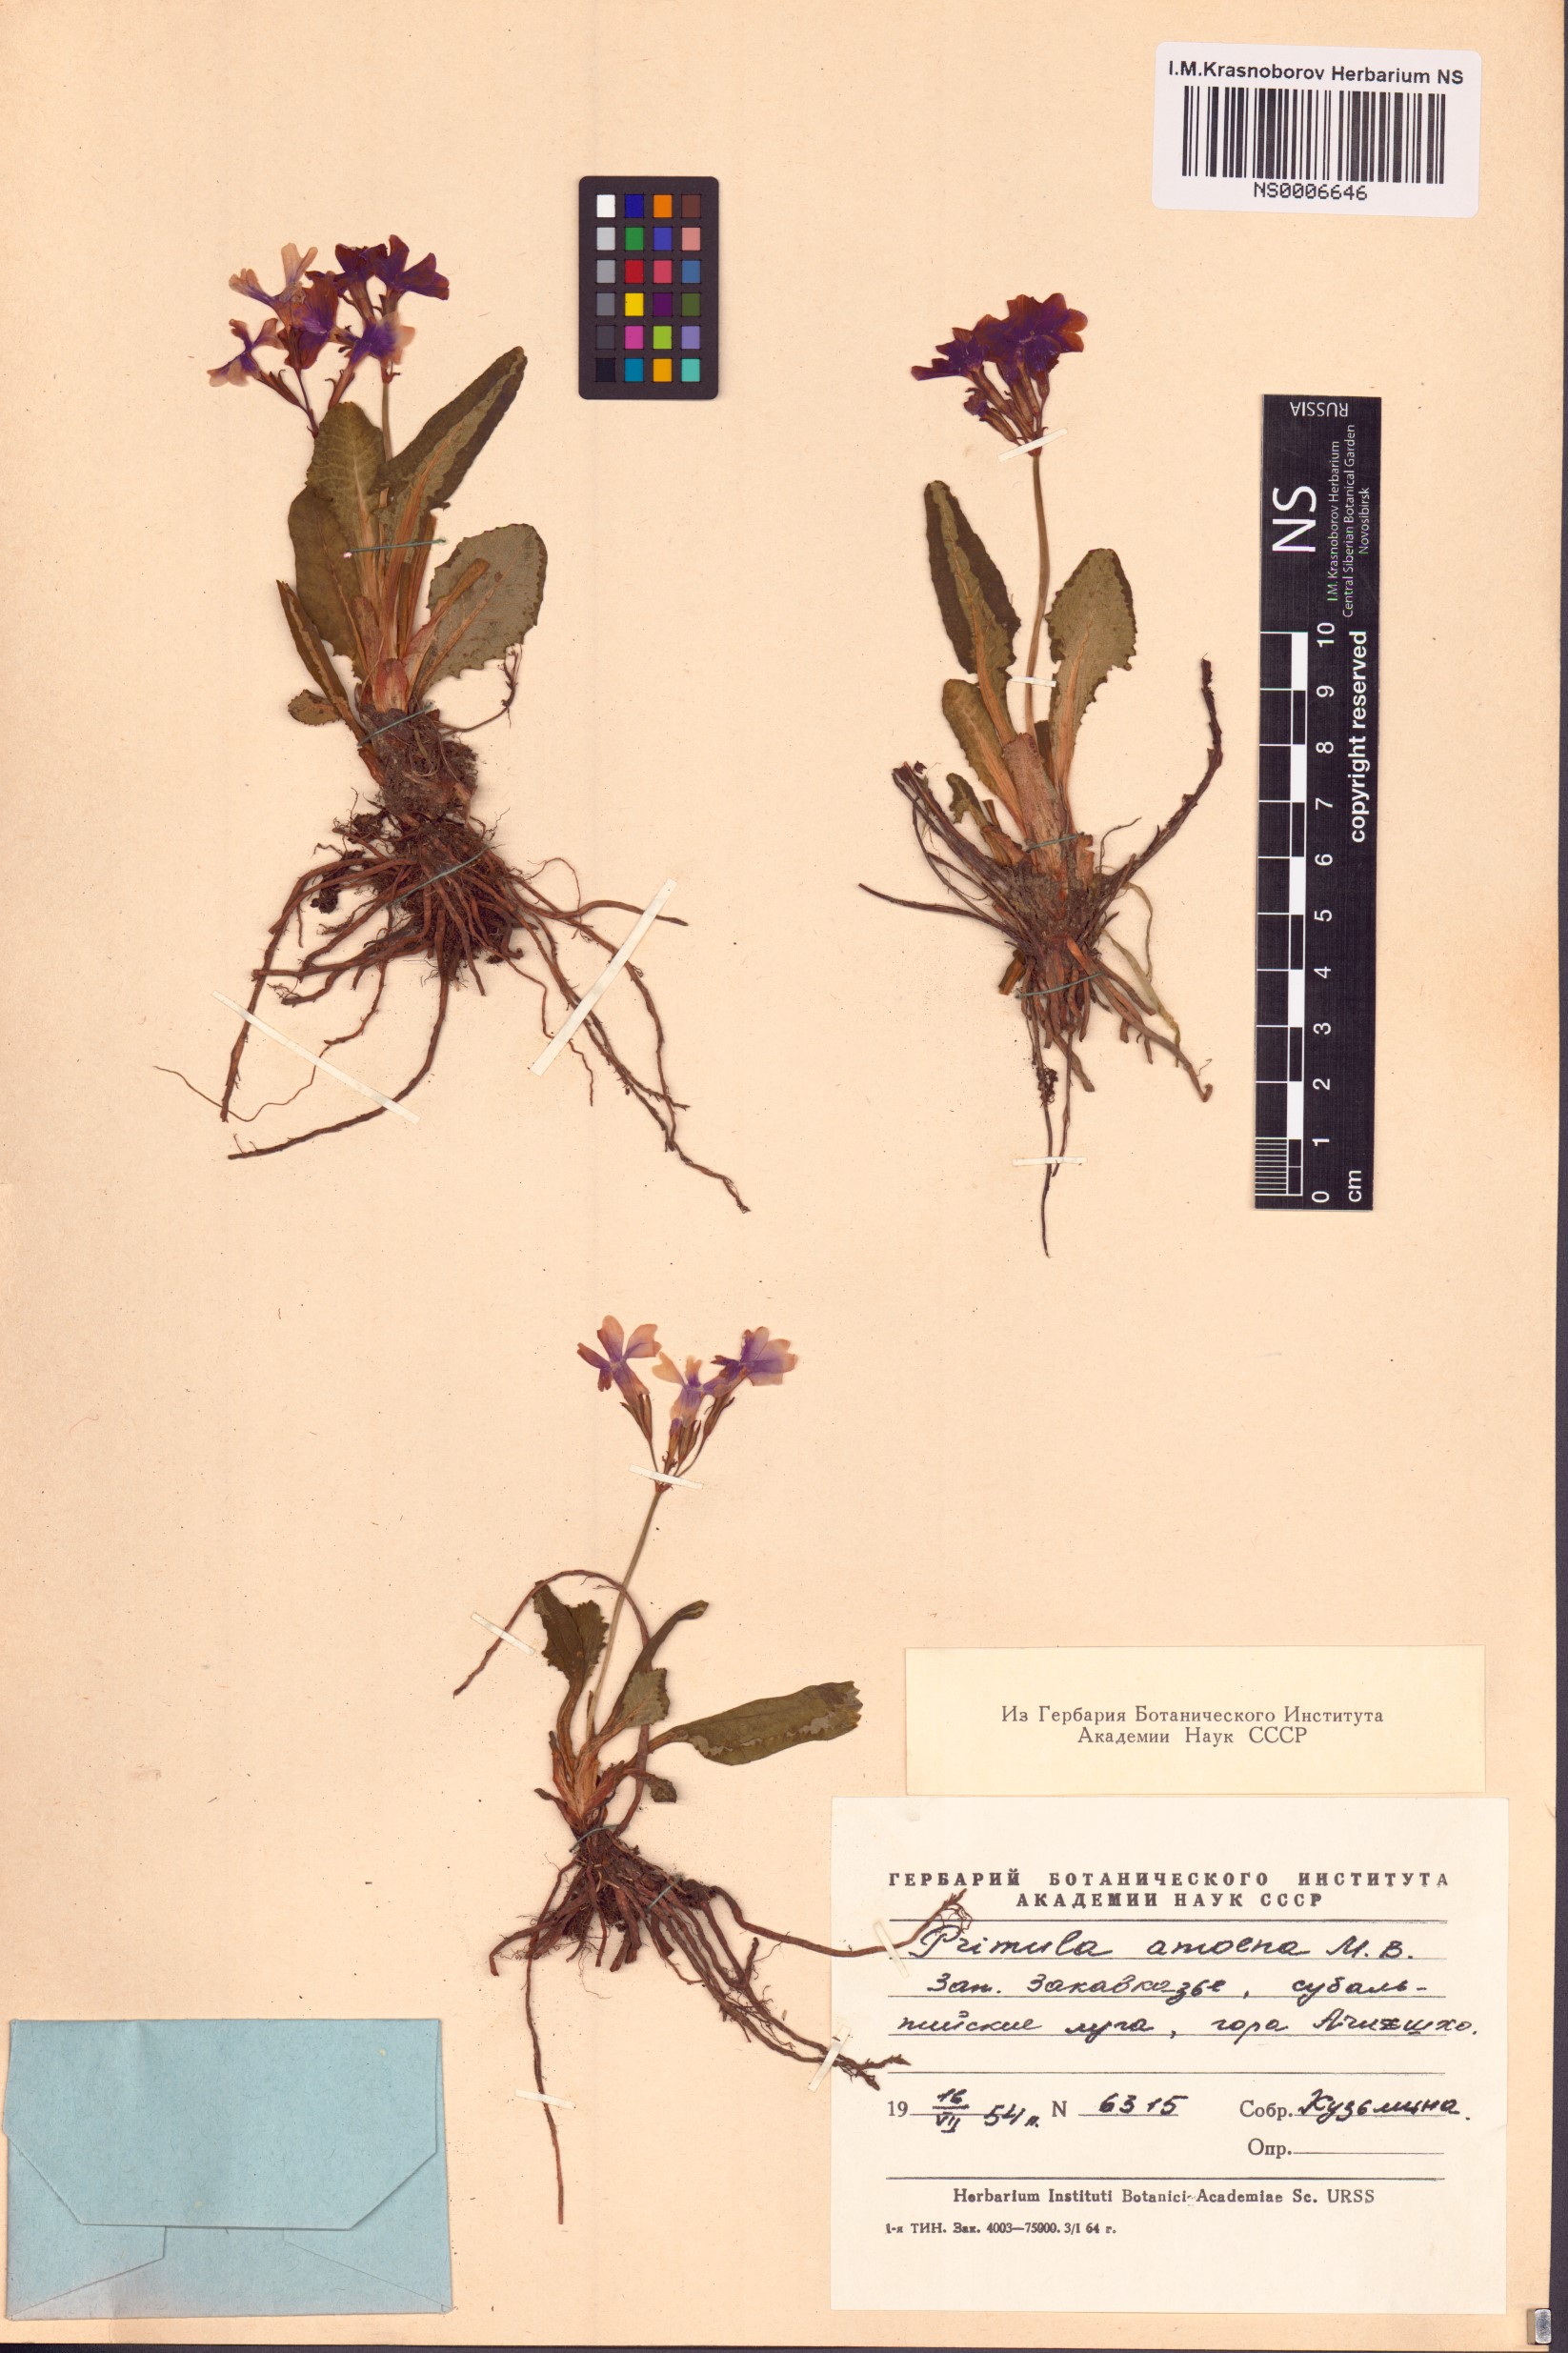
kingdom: Plantae
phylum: Tracheophyta
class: Magnoliopsida
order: Ericales
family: Primulaceae
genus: Primula
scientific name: Primula amoena
